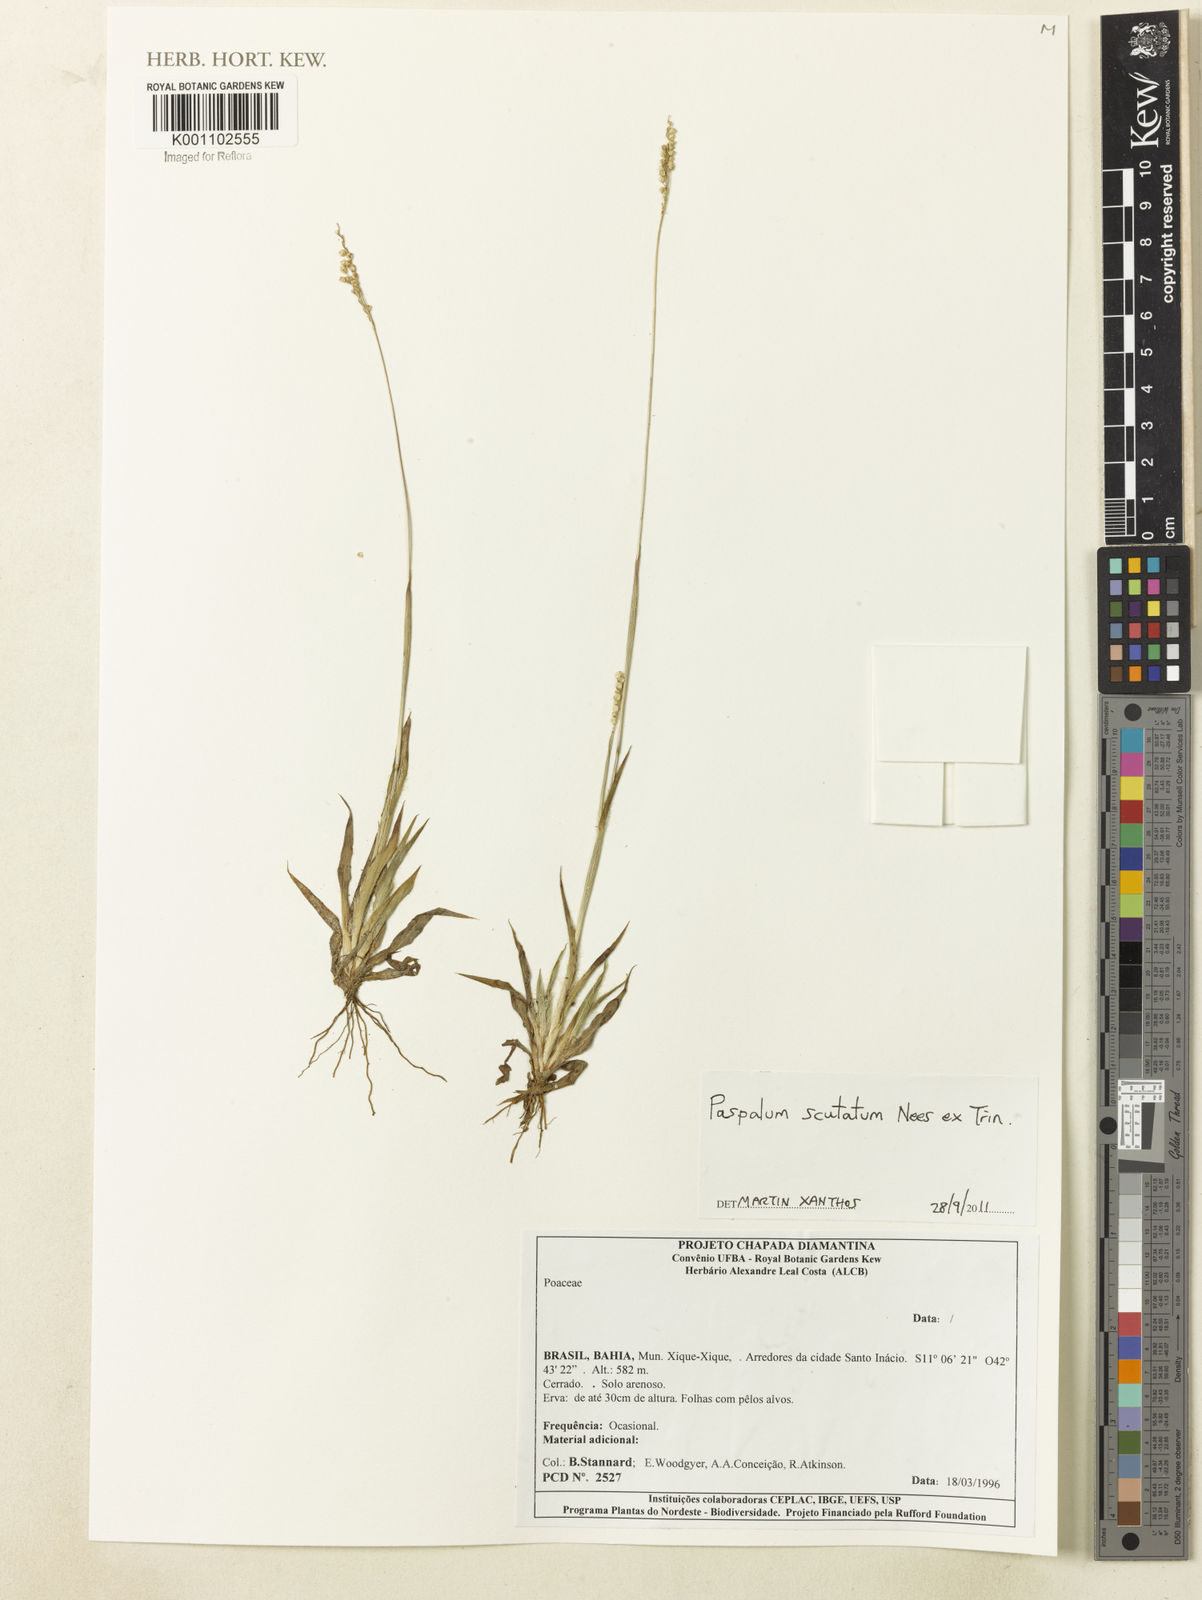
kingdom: Plantae
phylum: Tracheophyta
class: Liliopsida
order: Poales
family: Poaceae
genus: Paspalum
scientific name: Paspalum scutatum
